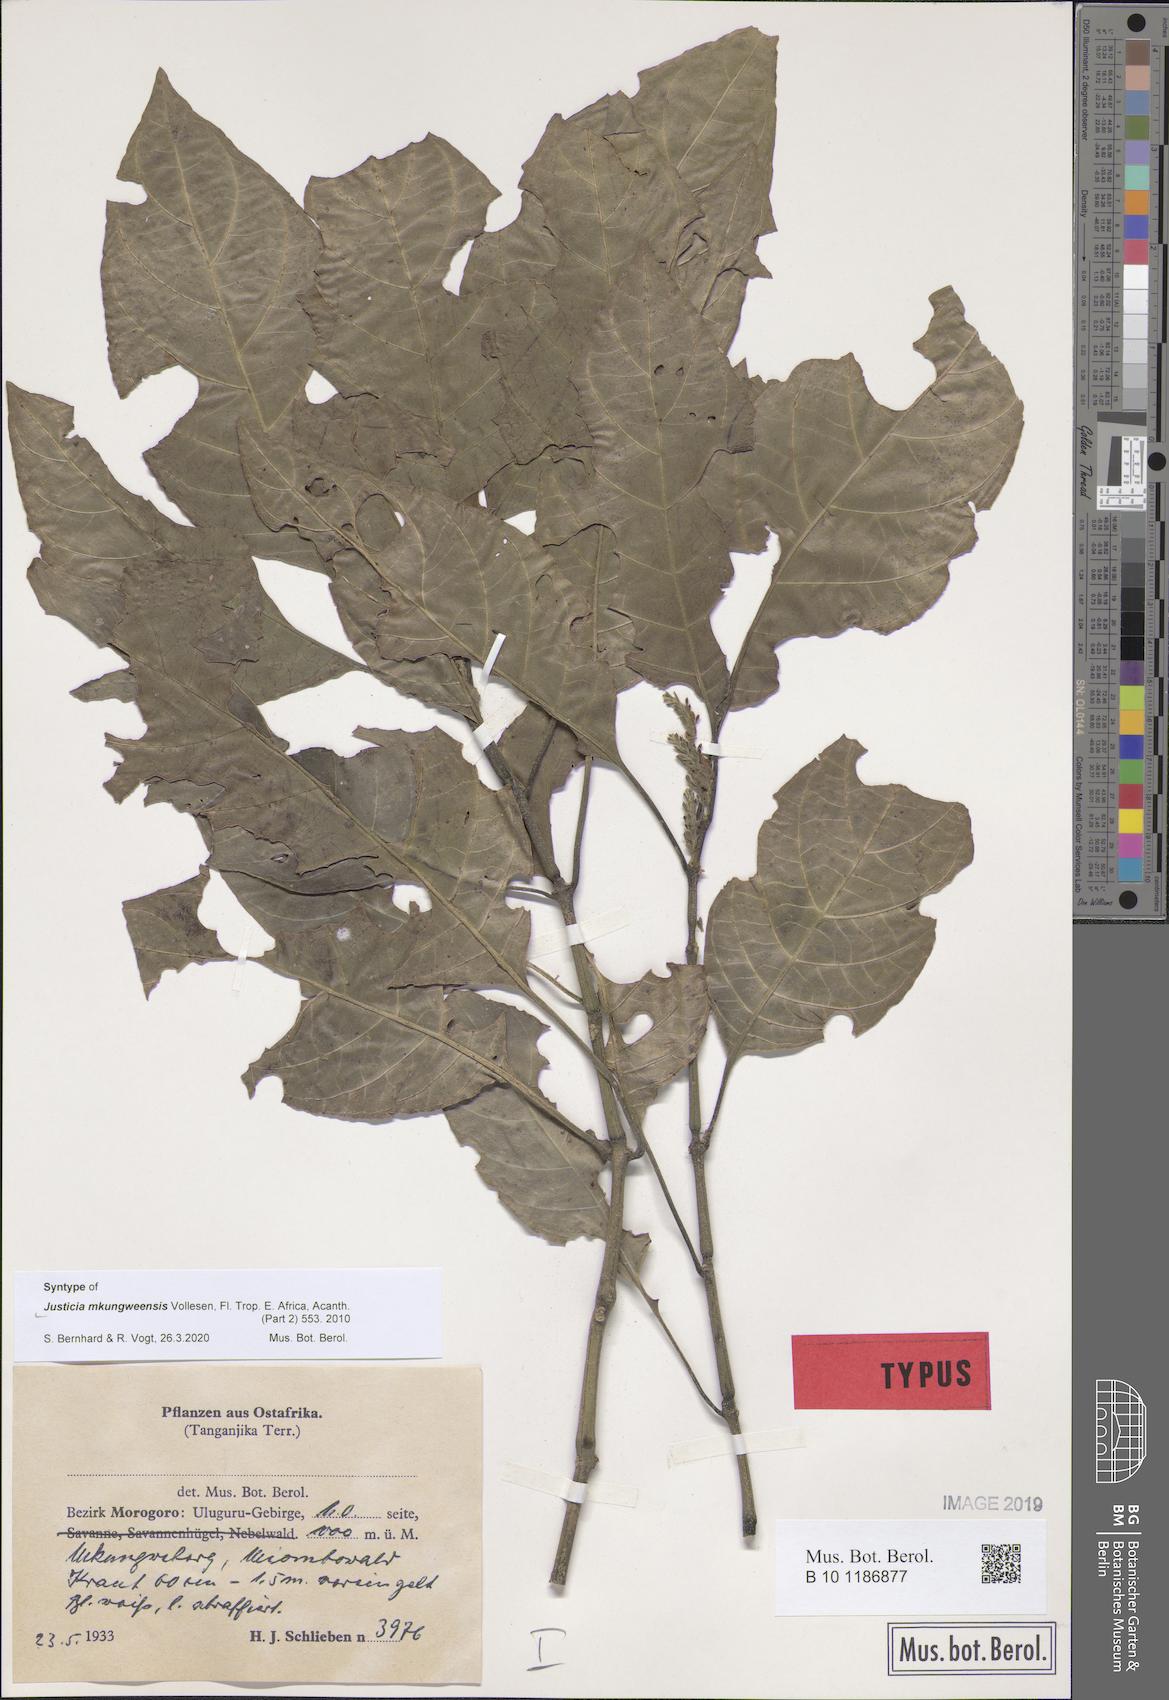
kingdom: Plantae
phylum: Tracheophyta
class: Magnoliopsida
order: Lamiales
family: Acanthaceae
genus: Justicia
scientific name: Justicia mkungweensis
